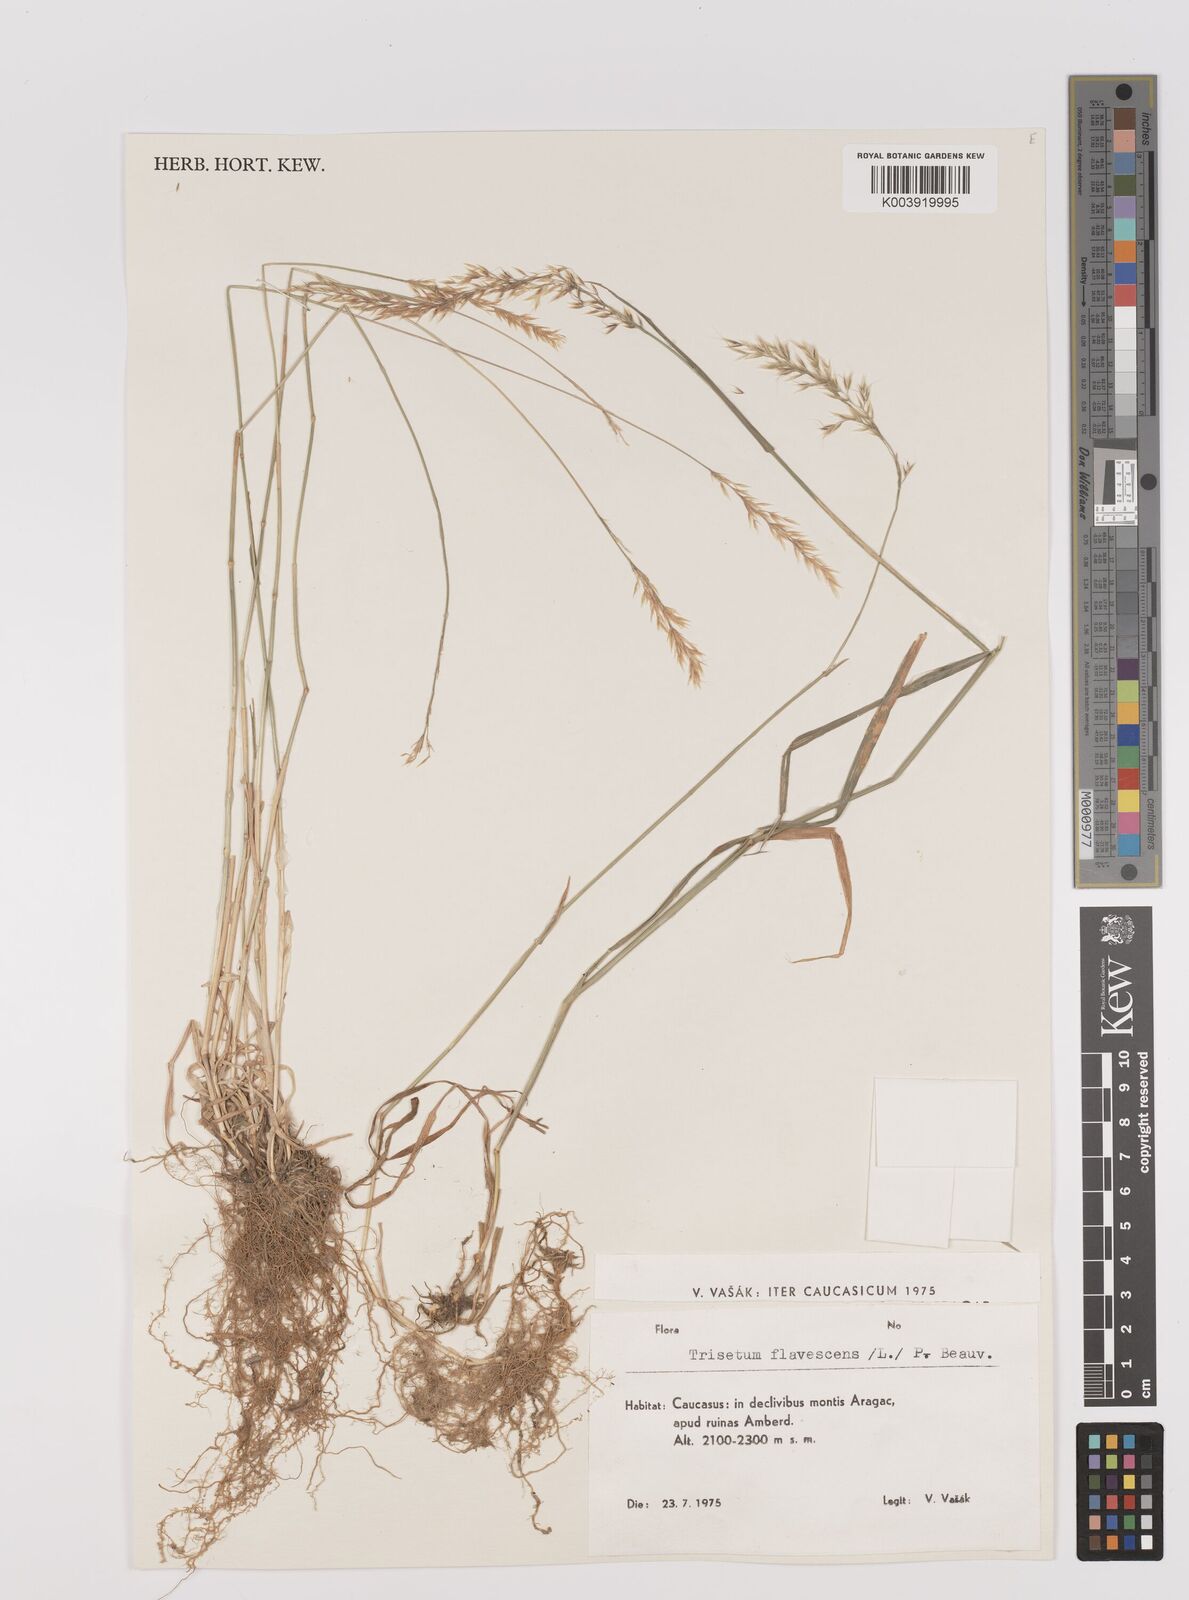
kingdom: Plantae
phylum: Tracheophyta
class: Liliopsida
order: Poales
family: Poaceae
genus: Trisetum
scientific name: Trisetum flavescens
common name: Yellow oat-grass
